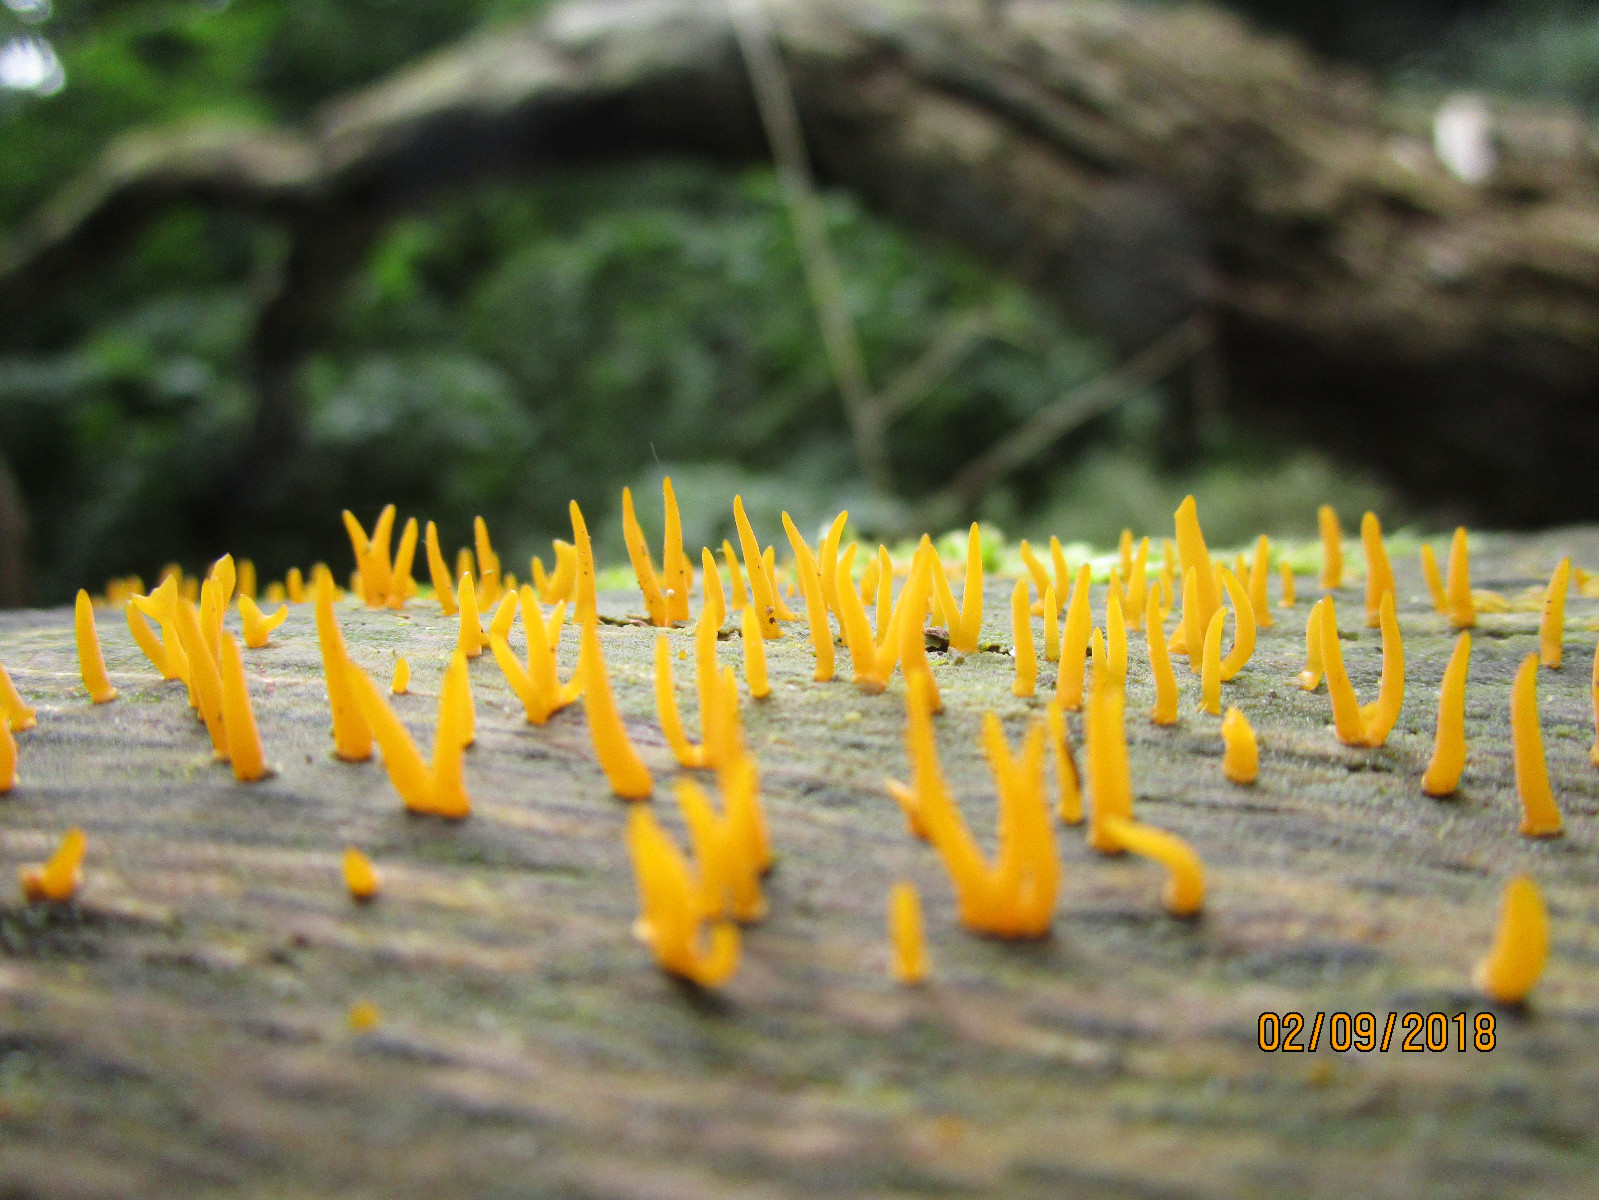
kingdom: Fungi
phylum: Basidiomycota
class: Dacrymycetes
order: Dacrymycetales
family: Dacrymycetaceae
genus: Calocera
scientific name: Calocera cornea
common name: liden guldgaffel
